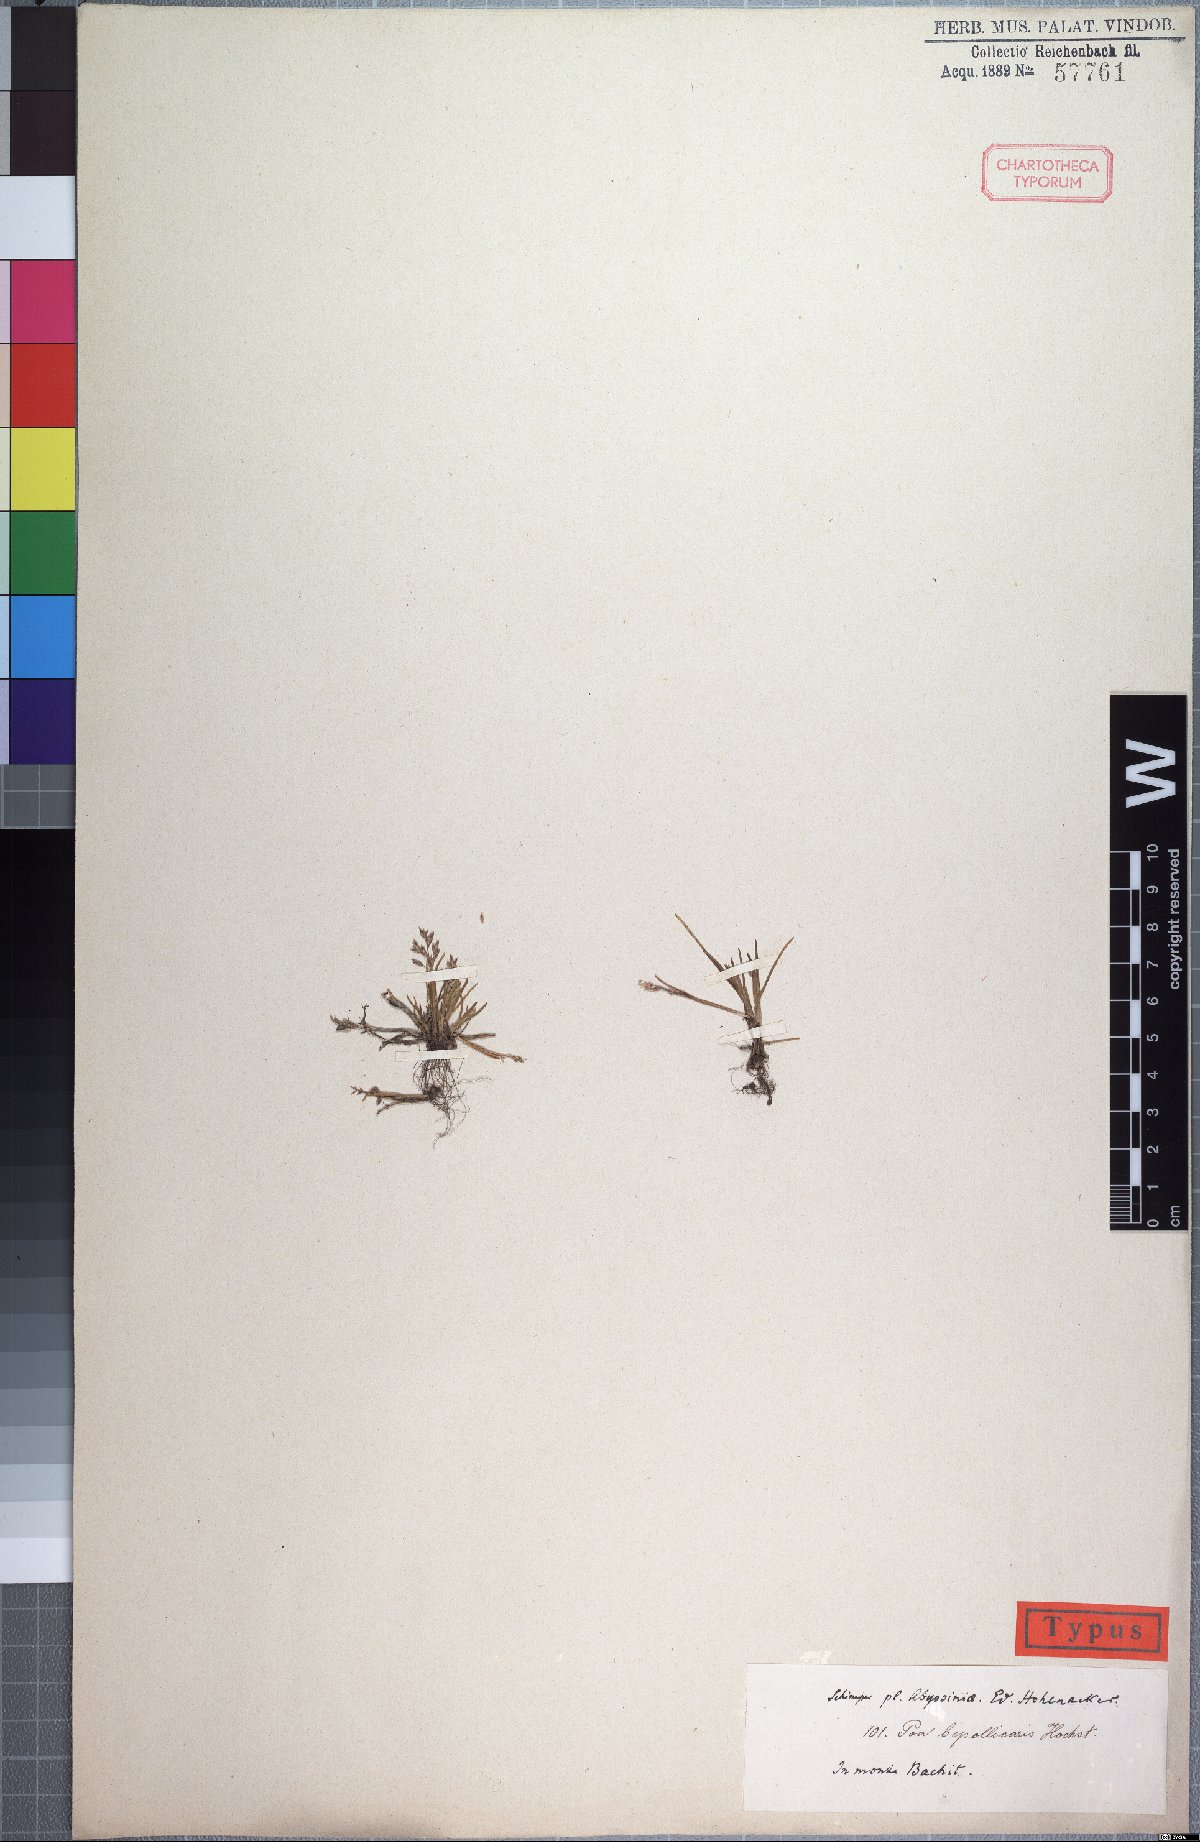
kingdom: Plantae
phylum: Tracheophyta
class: Liliopsida
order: Poales
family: Poaceae
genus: Poa
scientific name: Poa annua
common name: Annual bluegrass
